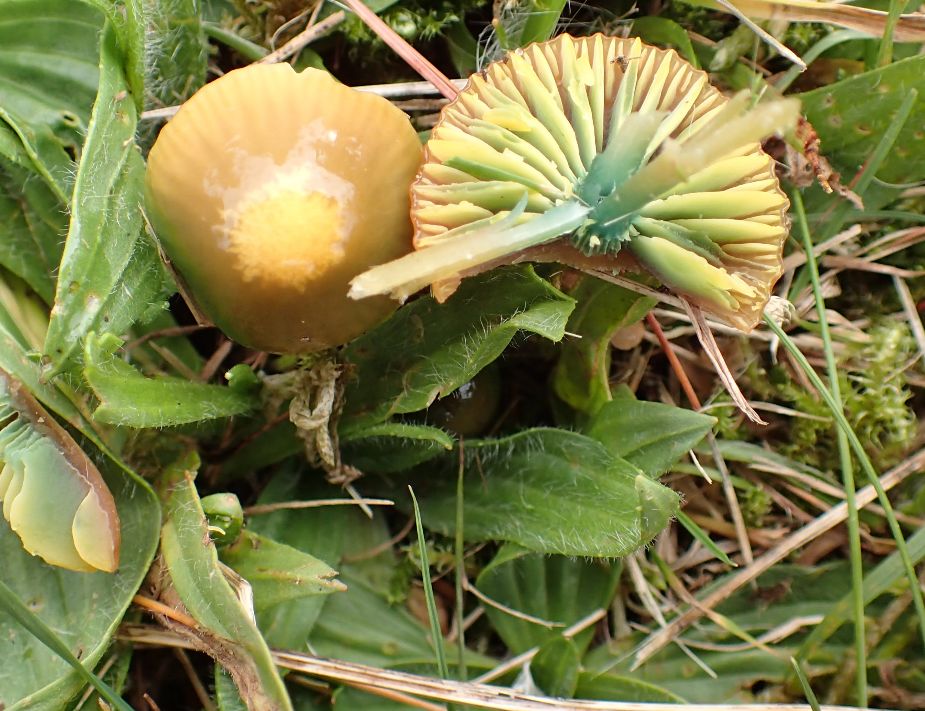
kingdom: Fungi
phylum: Basidiomycota
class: Agaricomycetes
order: Agaricales
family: Hygrophoraceae
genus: Gliophorus
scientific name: Gliophorus psittacinus
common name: papegøje-vokshat
